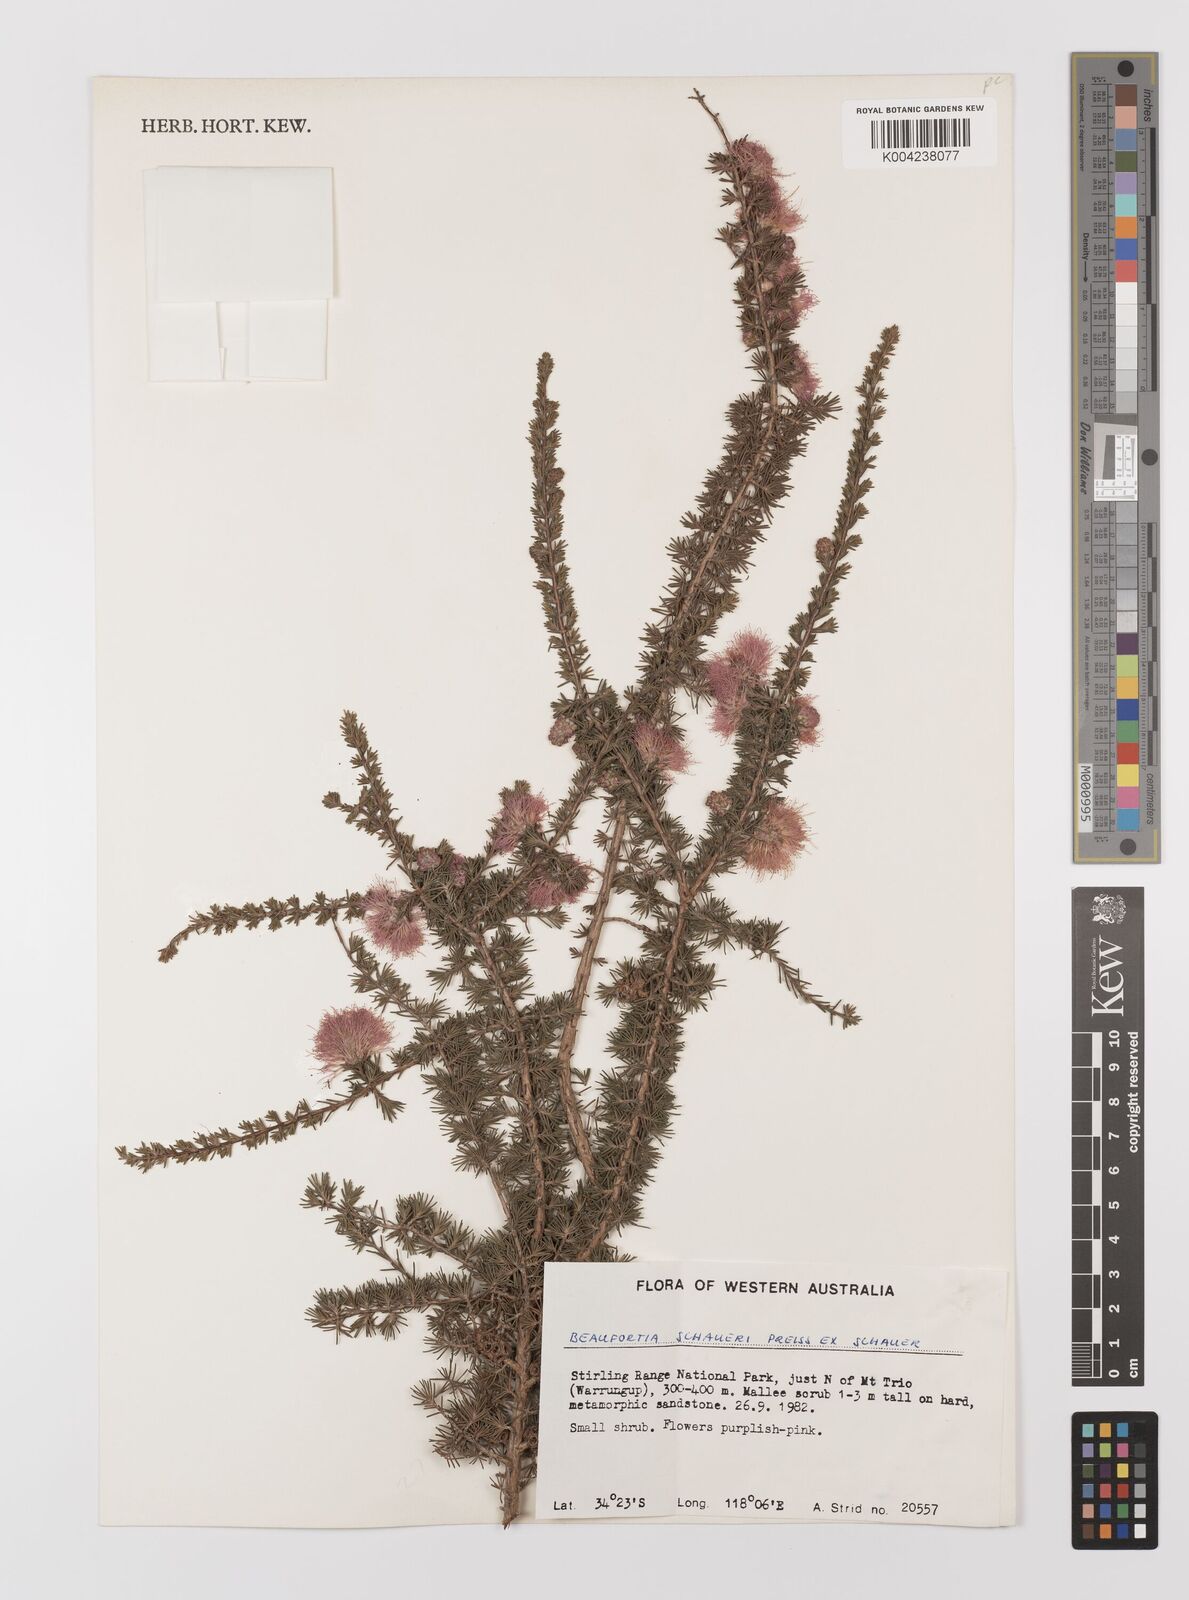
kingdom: Plantae
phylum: Tracheophyta
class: Magnoliopsida
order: Myrtales
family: Myrtaceae
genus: Melaleuca
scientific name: Melaleuca jonesii
